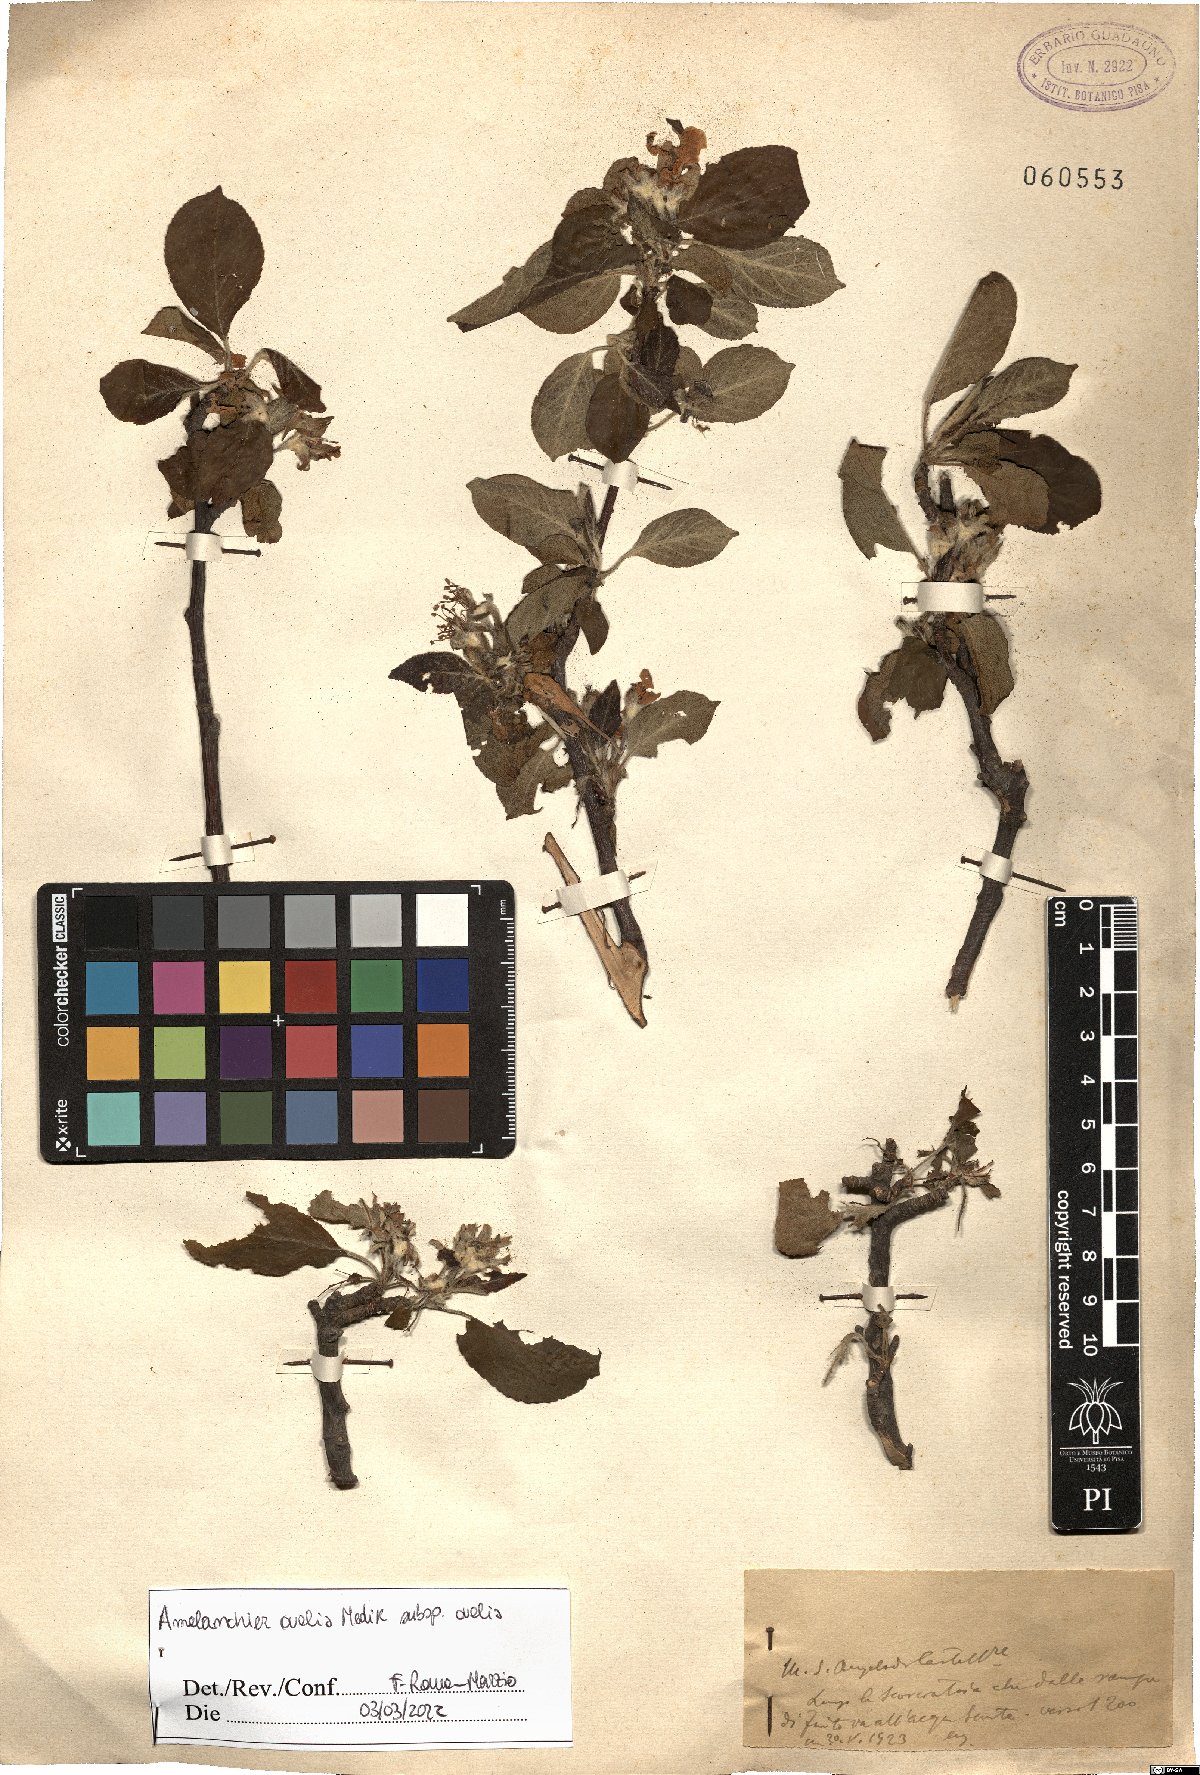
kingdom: Plantae
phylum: Tracheophyta
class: Magnoliopsida
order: Rosales
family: Rosaceae
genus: Amelanchier
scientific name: Amelanchier ovalis
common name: Serviceberry
